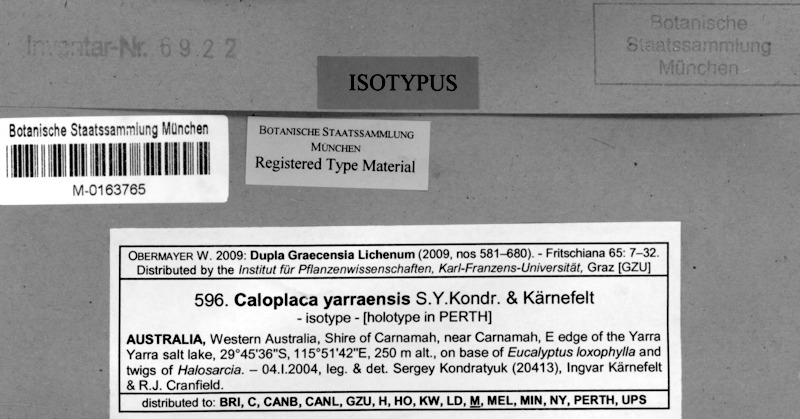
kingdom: Fungi
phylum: Ascomycota
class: Lecanoromycetes
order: Teloschistales
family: Teloschistaceae
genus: Cerothallia
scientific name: Cerothallia yarraensis
